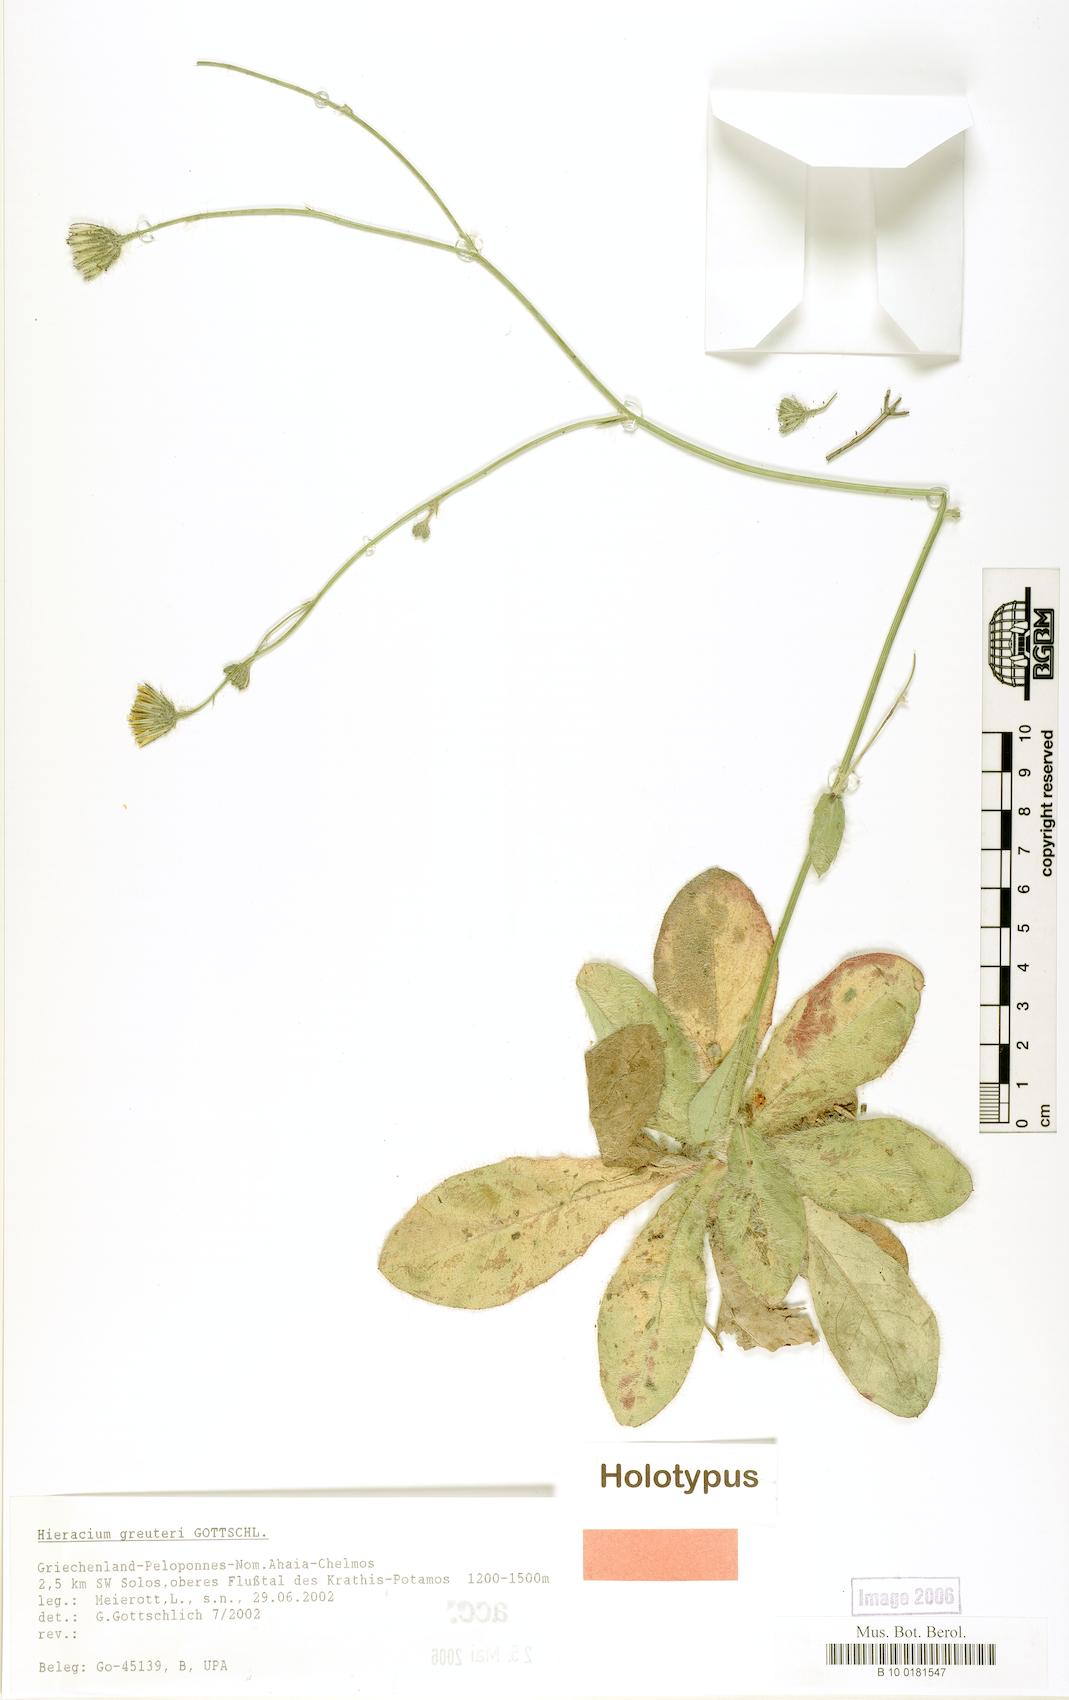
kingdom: Plantae
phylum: Tracheophyta
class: Magnoliopsida
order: Asterales
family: Asteraceae
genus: Hieracium
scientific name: Hieracium greuteri
